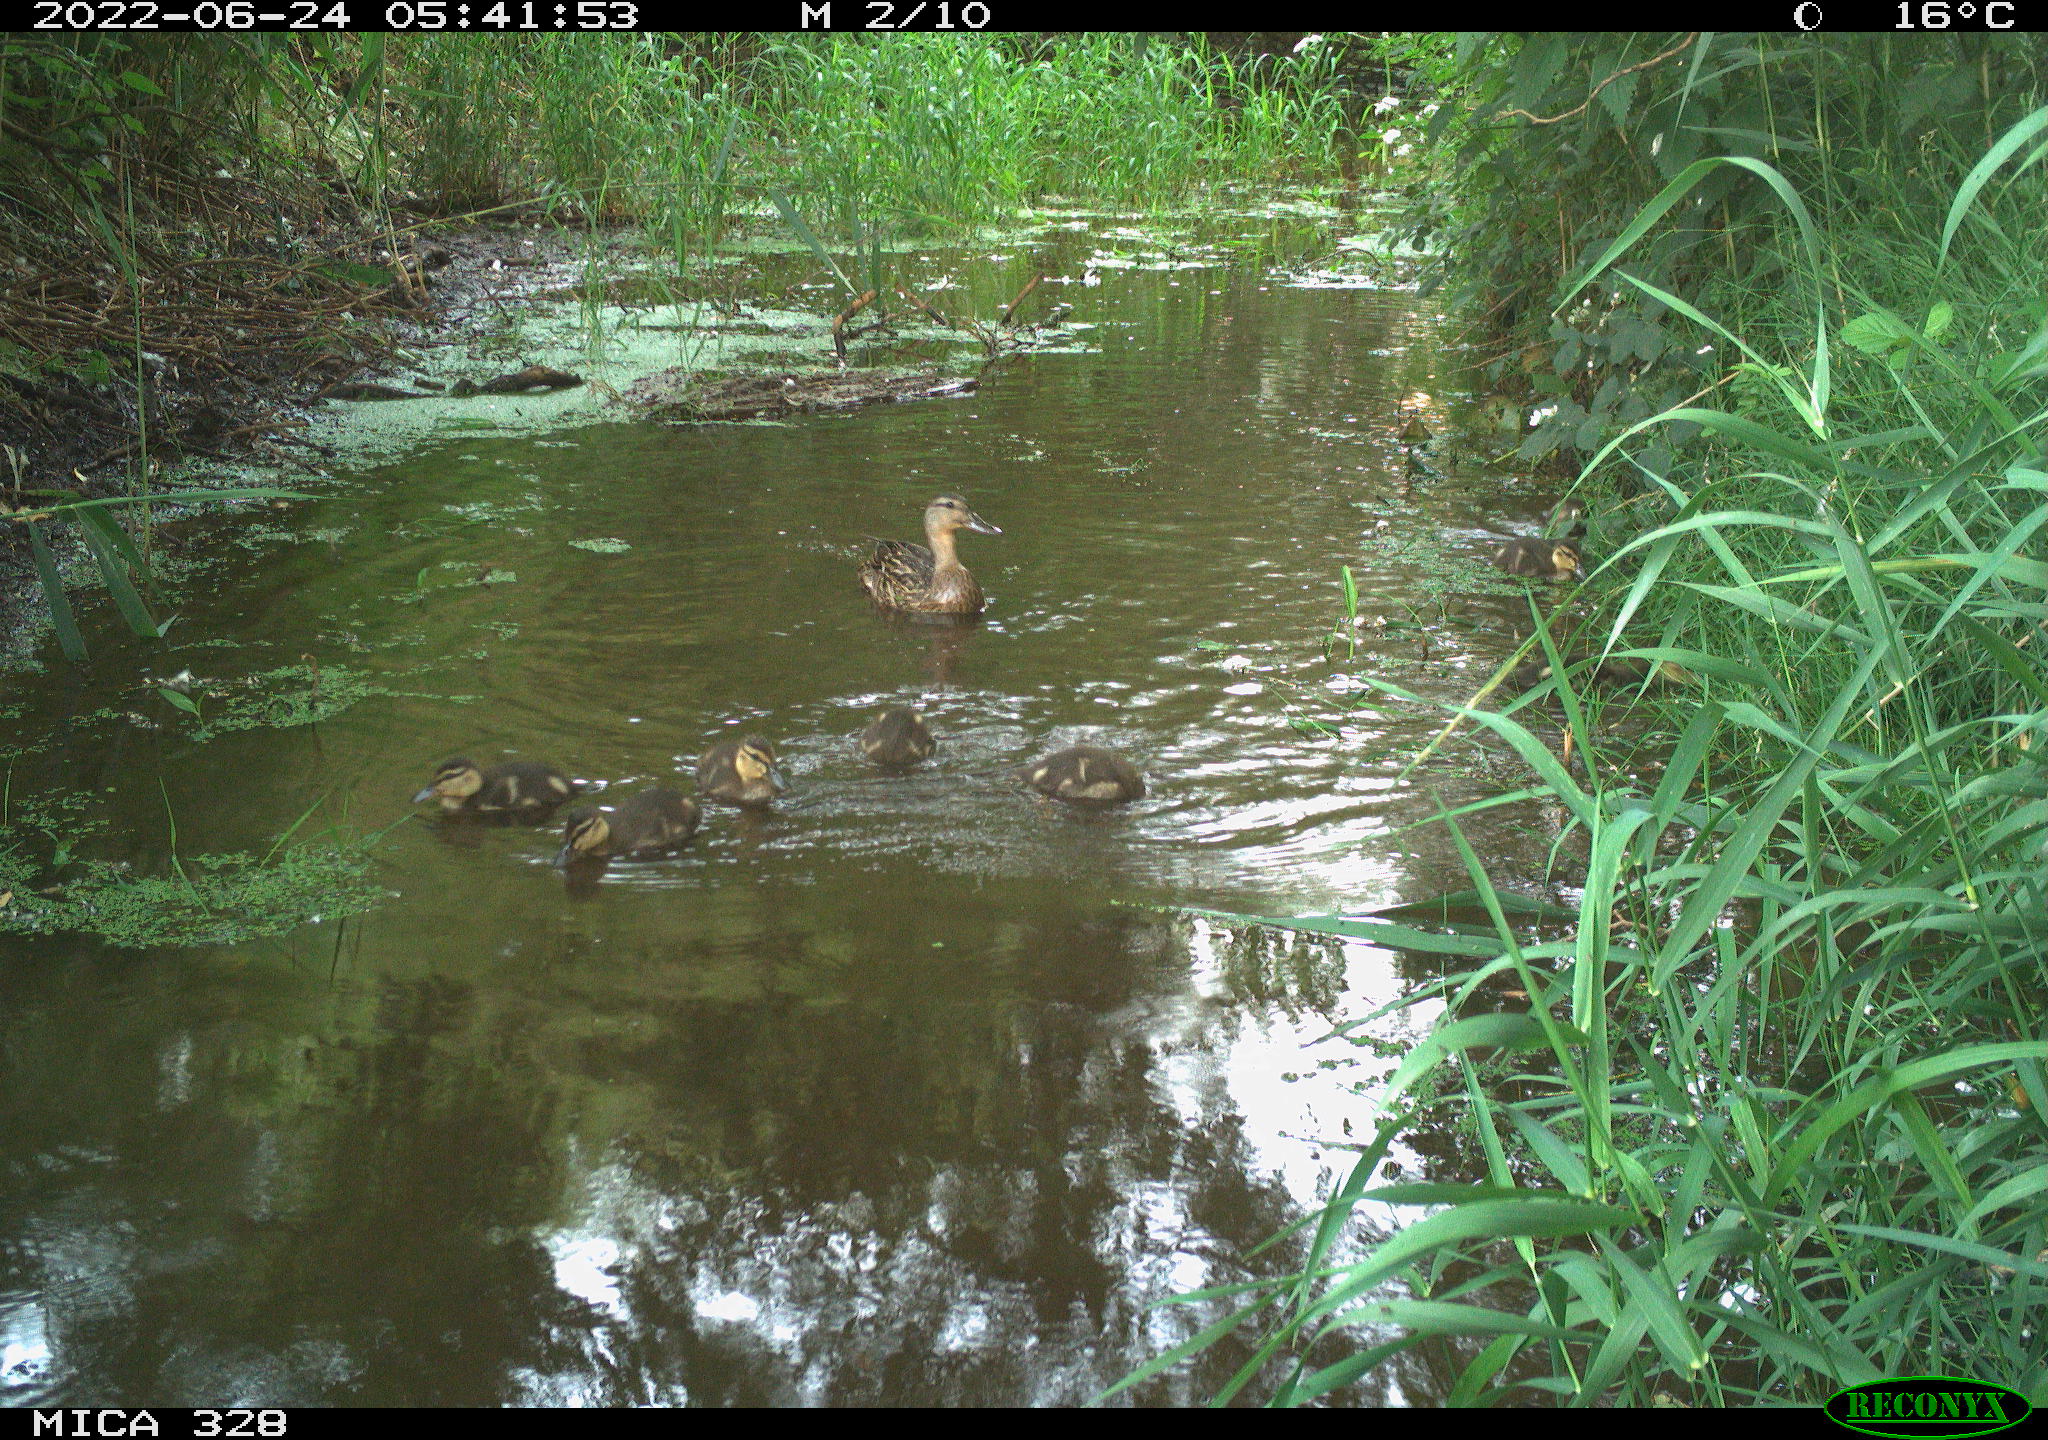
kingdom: Animalia
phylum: Chordata
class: Aves
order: Anseriformes
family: Anatidae
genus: Anas
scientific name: Anas
